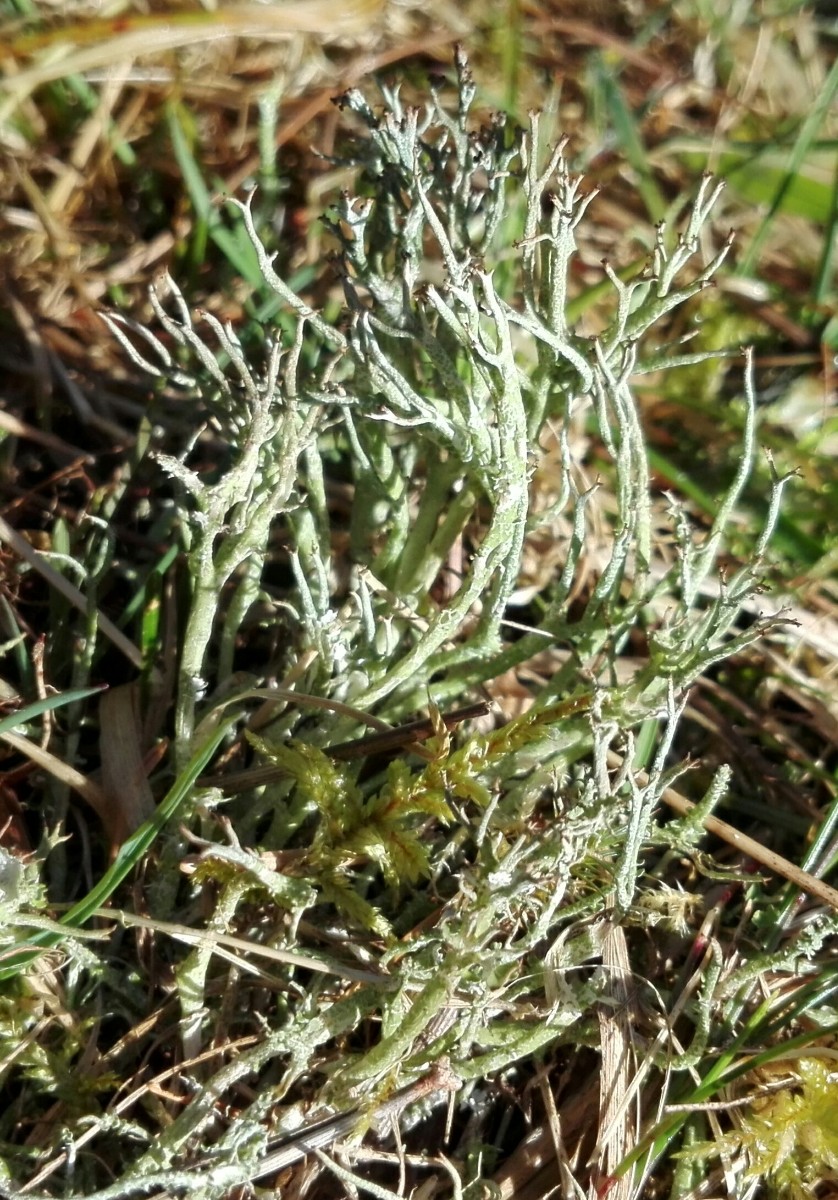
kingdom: Fungi
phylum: Ascomycota
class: Lecanoromycetes
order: Lecanorales
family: Cladoniaceae
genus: Cladonia
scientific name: Cladonia furcata
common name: kløftet bægerlav
